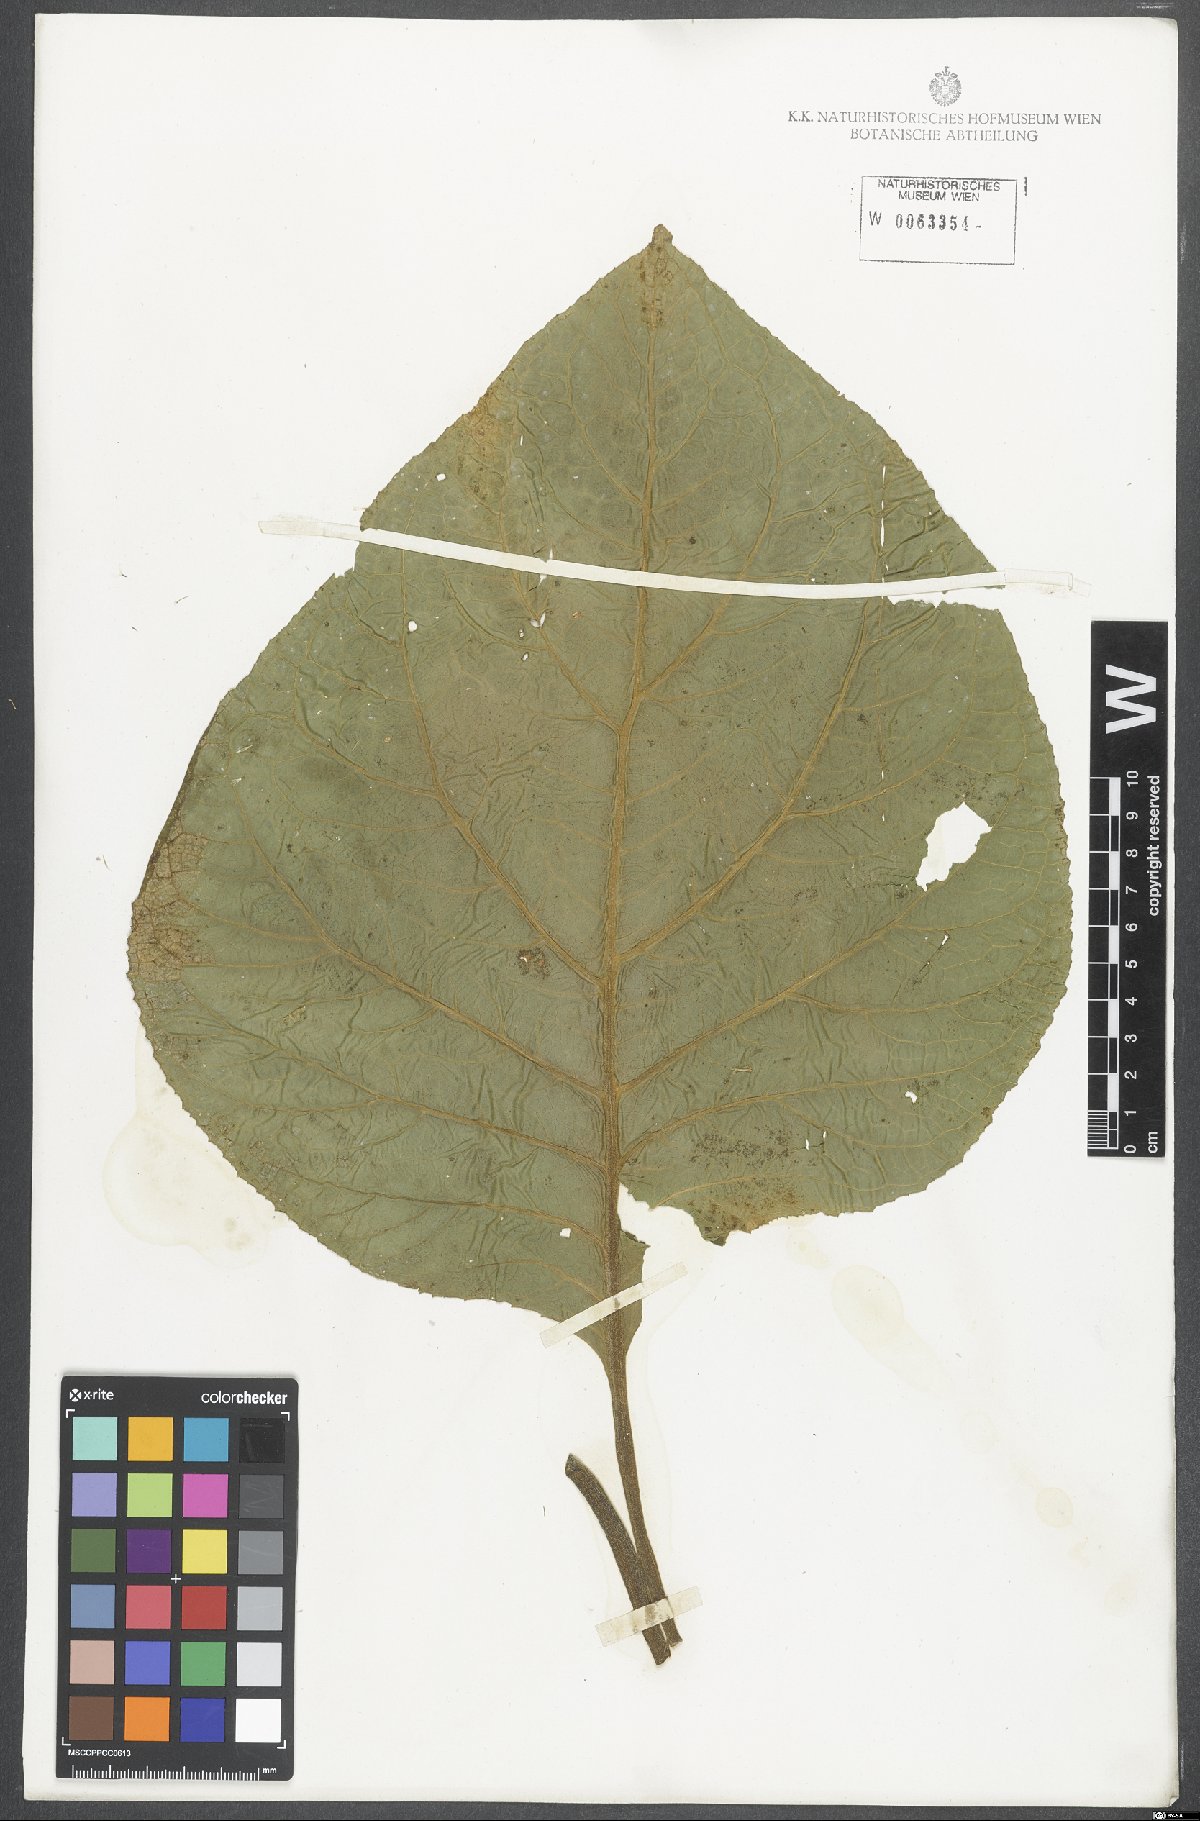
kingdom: Plantae
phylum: Tracheophyta
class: Magnoliopsida
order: Asterales
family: Asteraceae
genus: Hebeclinium
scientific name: Hebeclinium macrophyllum
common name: Largeleaf thoroughwort
